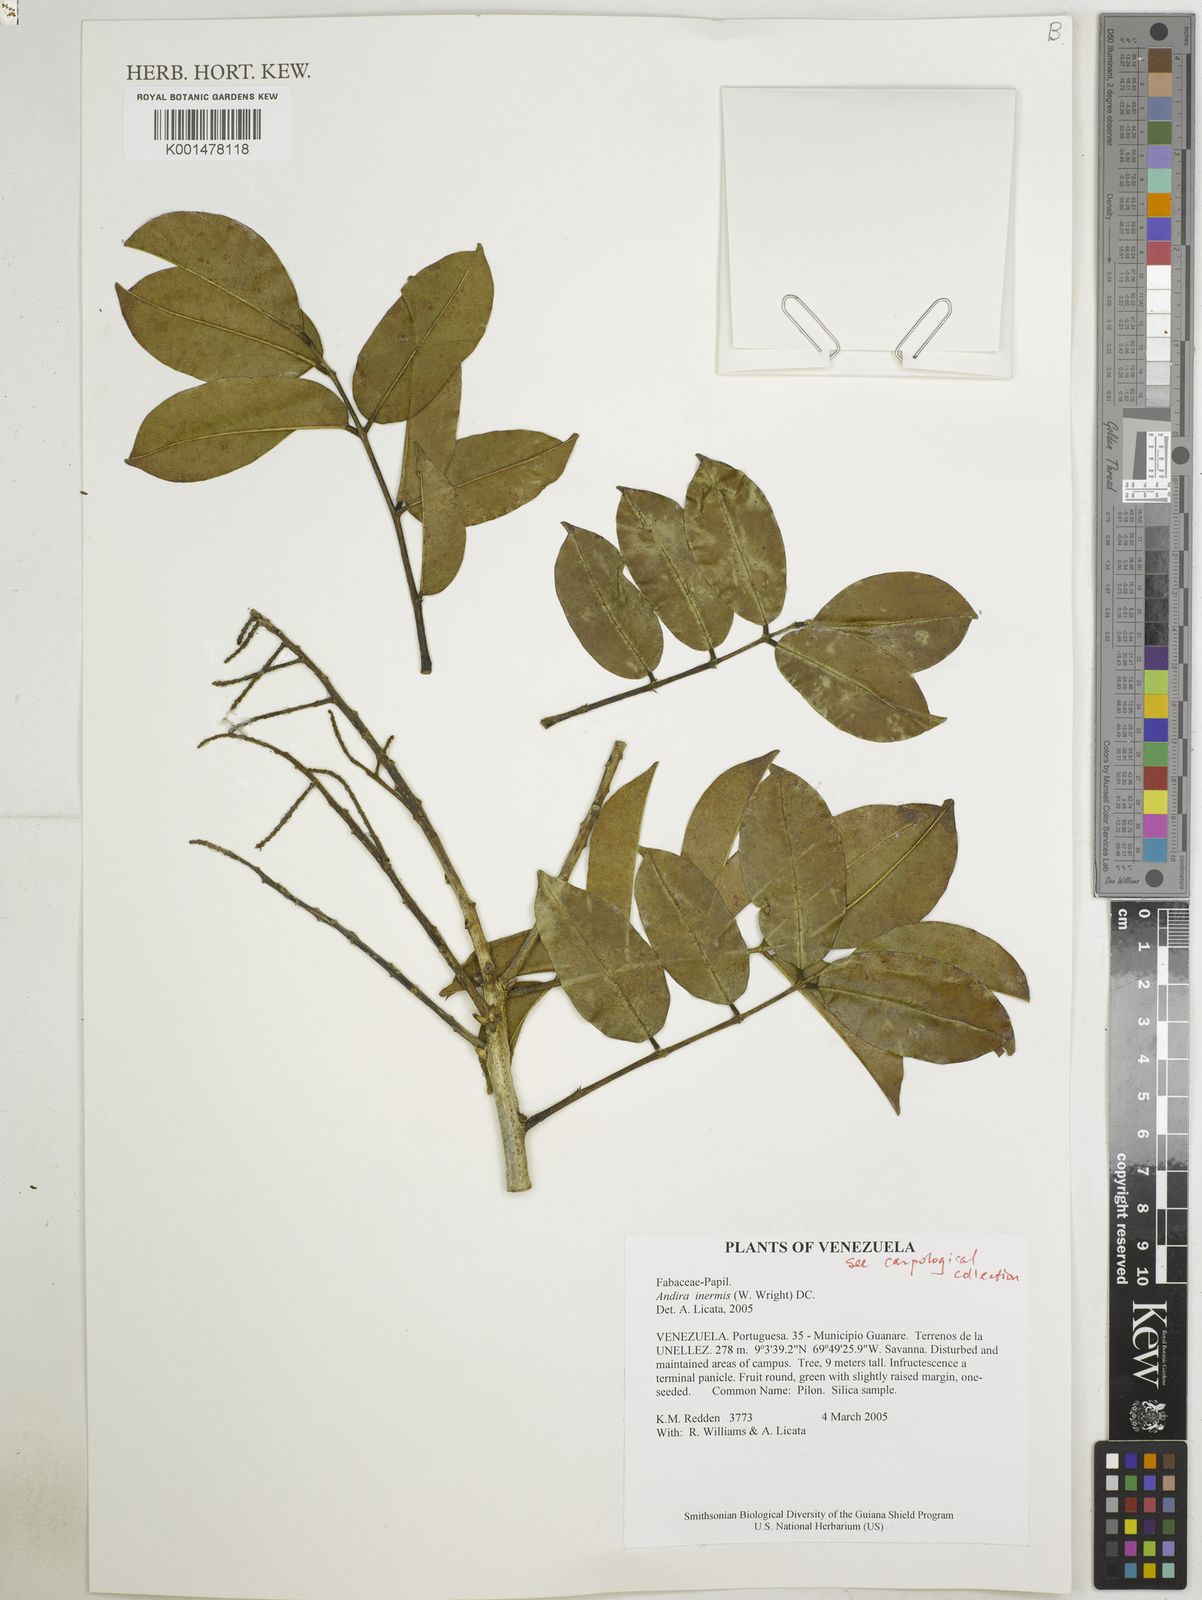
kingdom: Plantae
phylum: Tracheophyta
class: Magnoliopsida
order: Fabales
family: Fabaceae
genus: Andira
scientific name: Andira inermis
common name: Angelin
